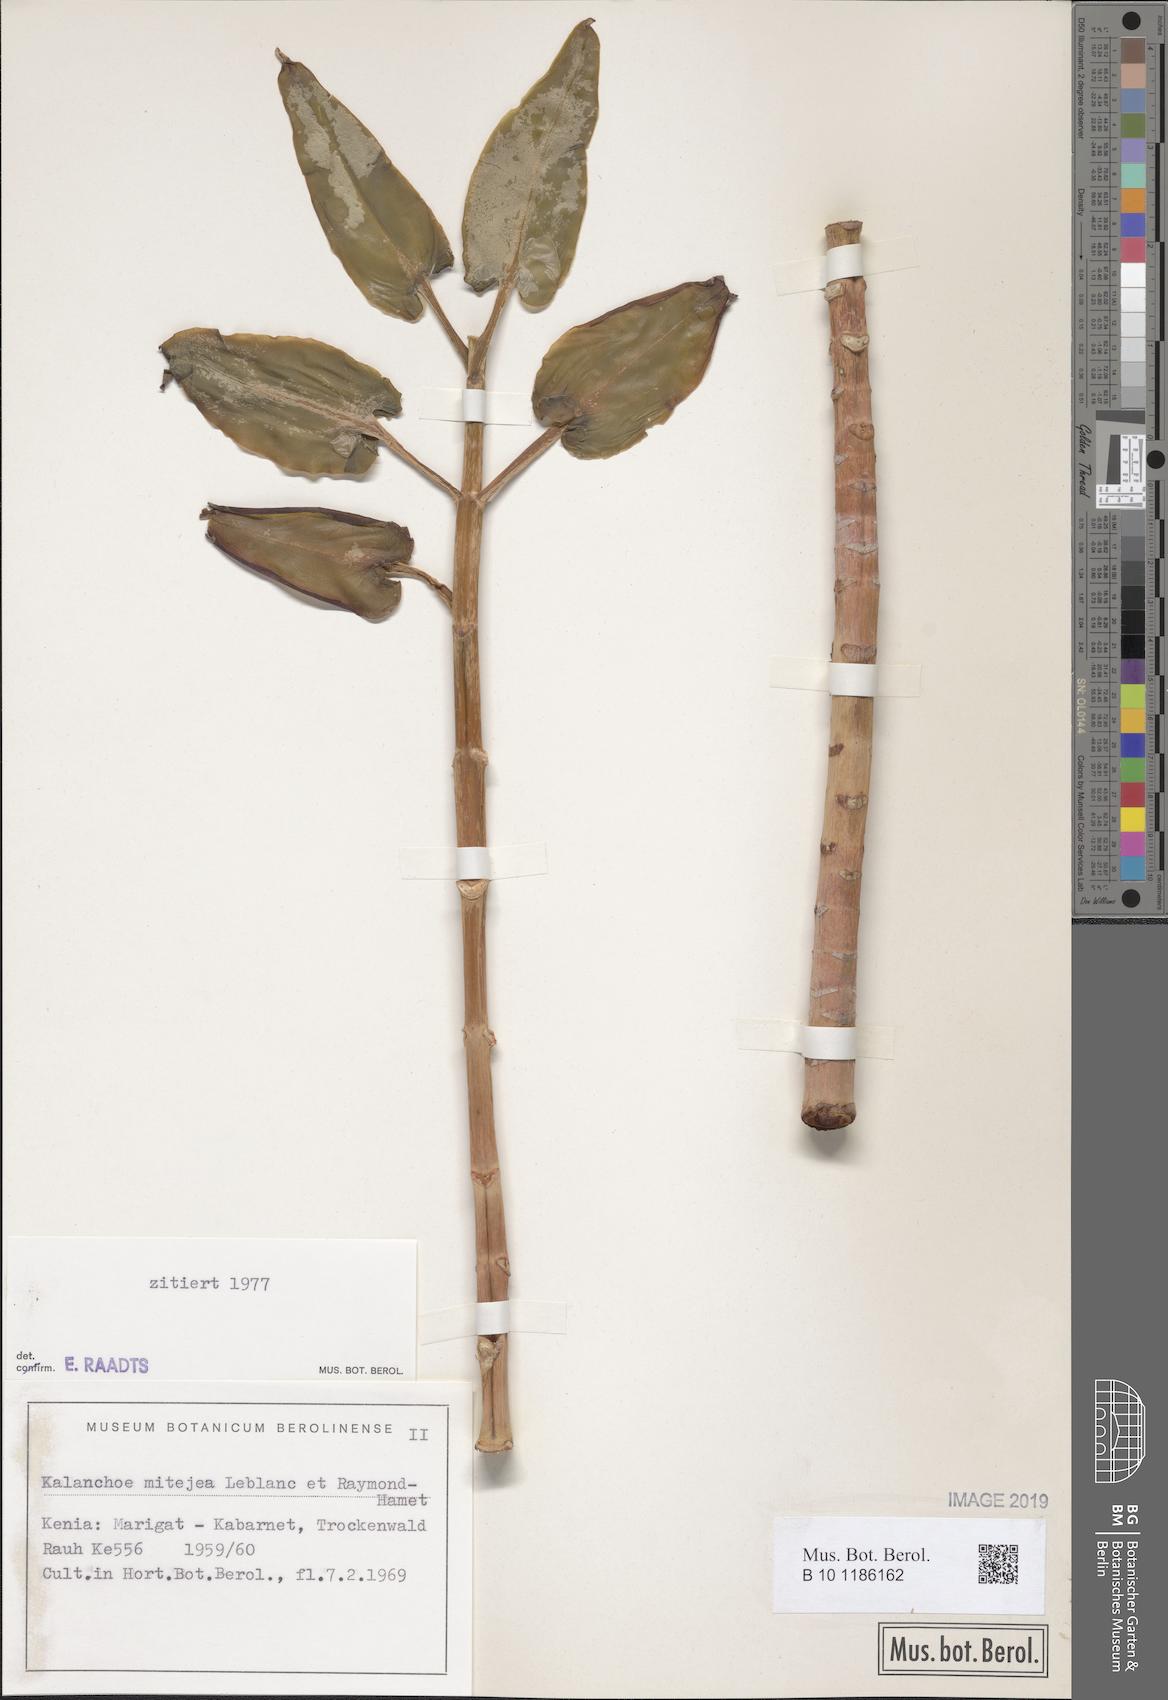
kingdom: Plantae
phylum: Tracheophyta
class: Magnoliopsida
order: Saxifragales
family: Crassulaceae
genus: Kalanchoe
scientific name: Kalanchoe mitejea
